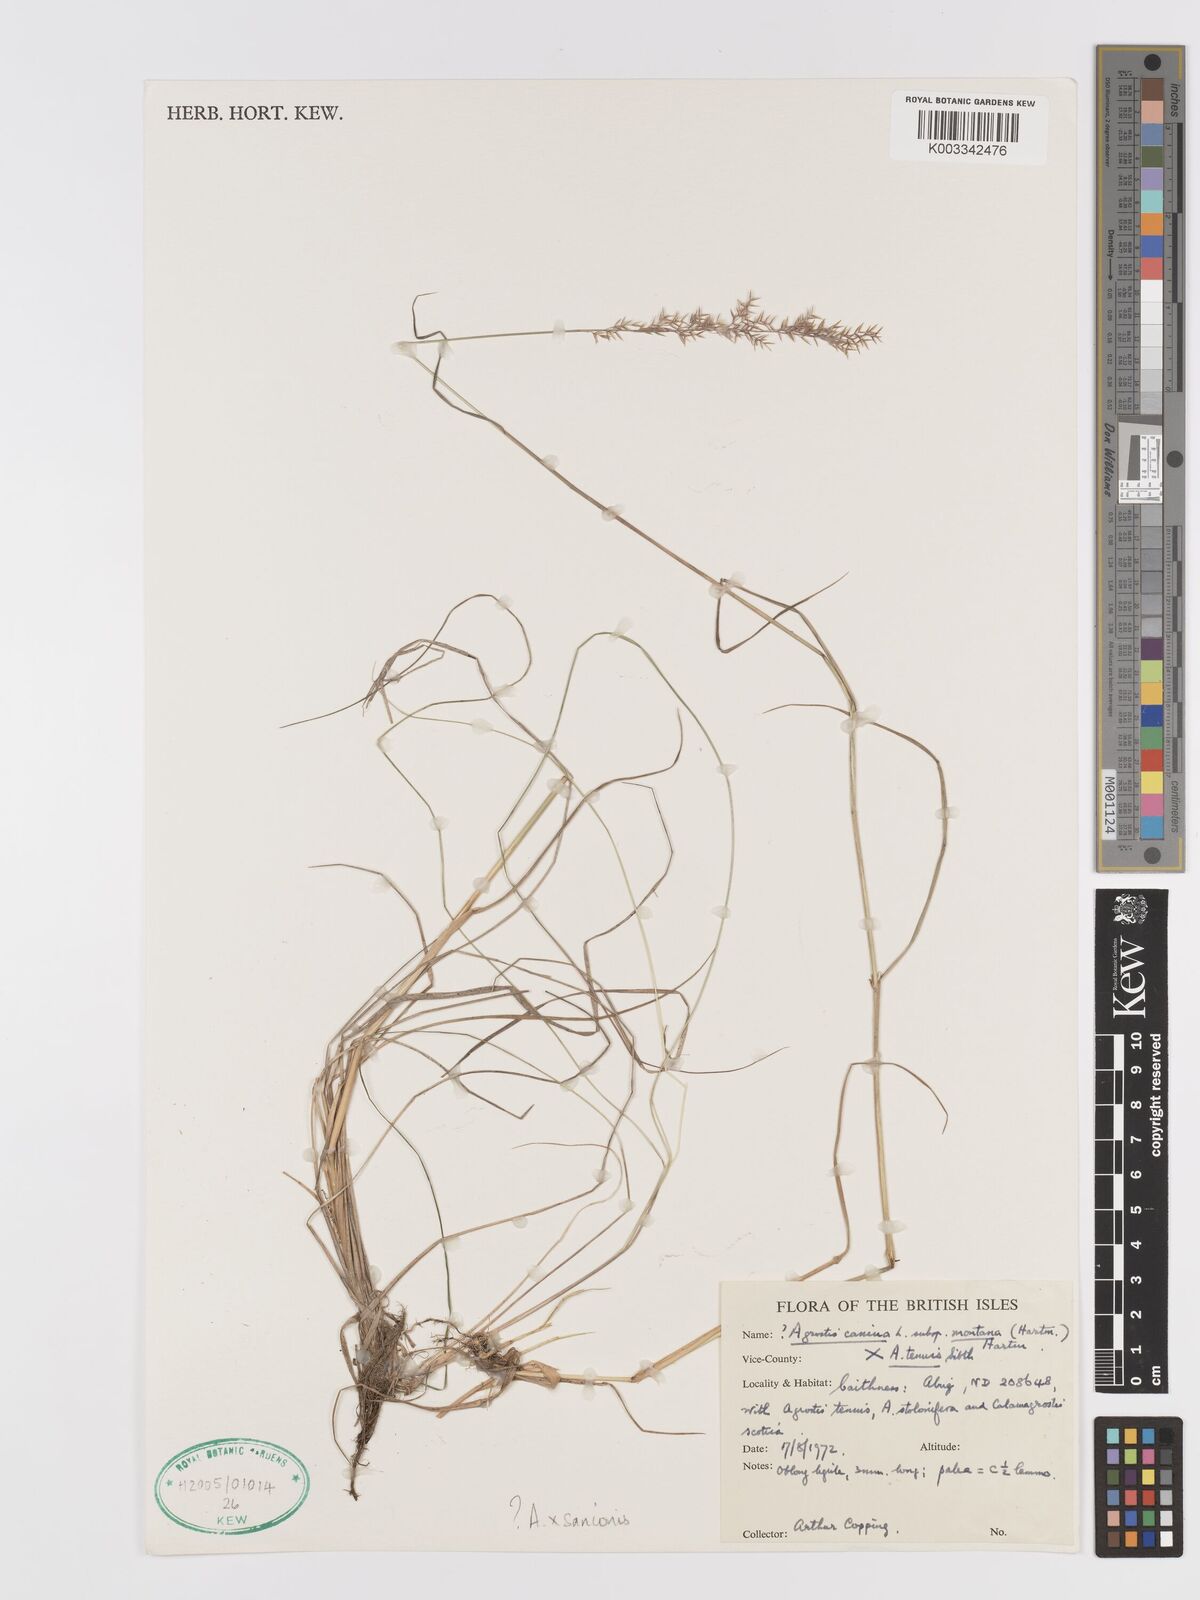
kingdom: Plantae
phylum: Tracheophyta
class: Liliopsida
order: Poales
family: Poaceae
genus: Agrostis
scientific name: Agrostis capillaris
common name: Colonial bentgrass
